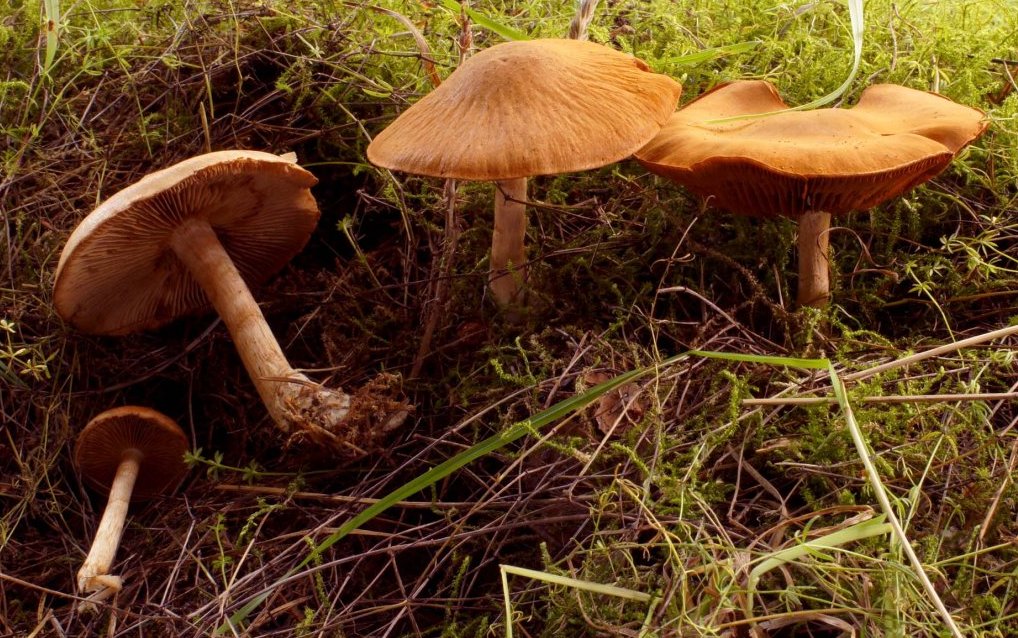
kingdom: Fungi
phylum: Basidiomycota
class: Agaricomycetes
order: Agaricales
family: Cortinariaceae
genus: Cortinarius
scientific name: Cortinarius caninus
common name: gran-slørhat
